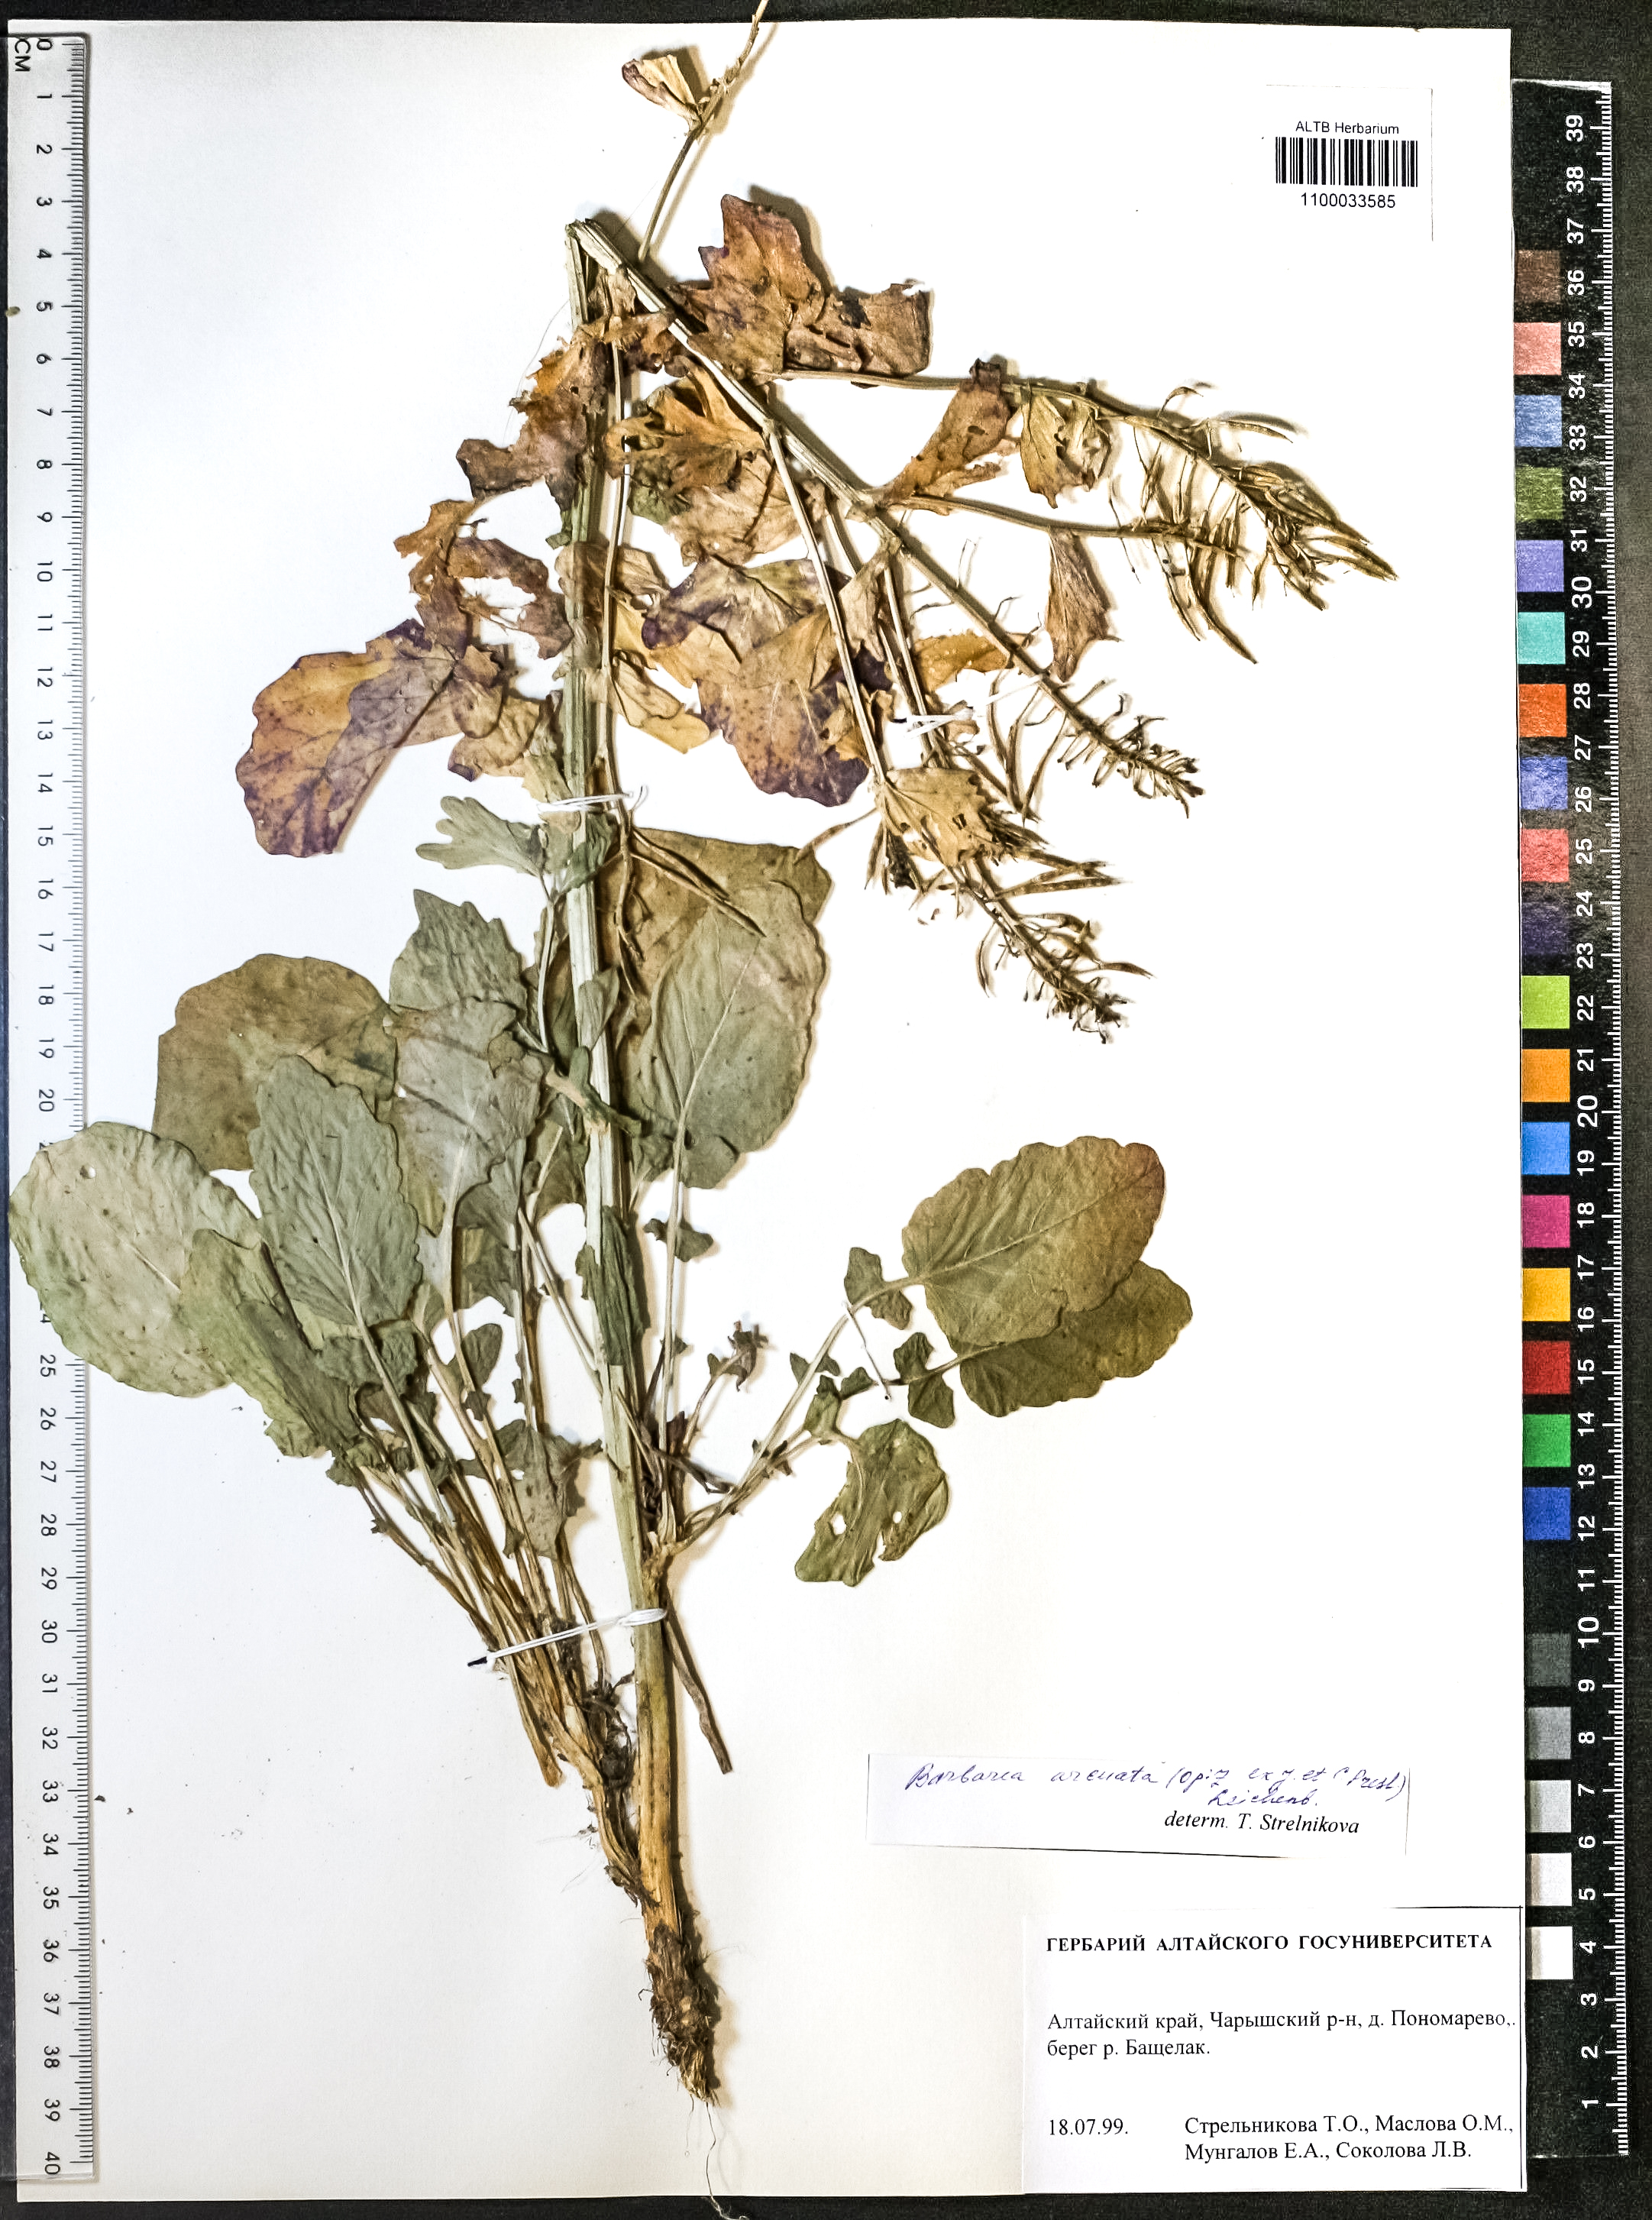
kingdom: Plantae
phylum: Tracheophyta
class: Magnoliopsida
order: Brassicales
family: Brassicaceae
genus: Barbarea
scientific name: Barbarea vulgaris
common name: Cressy-greens
